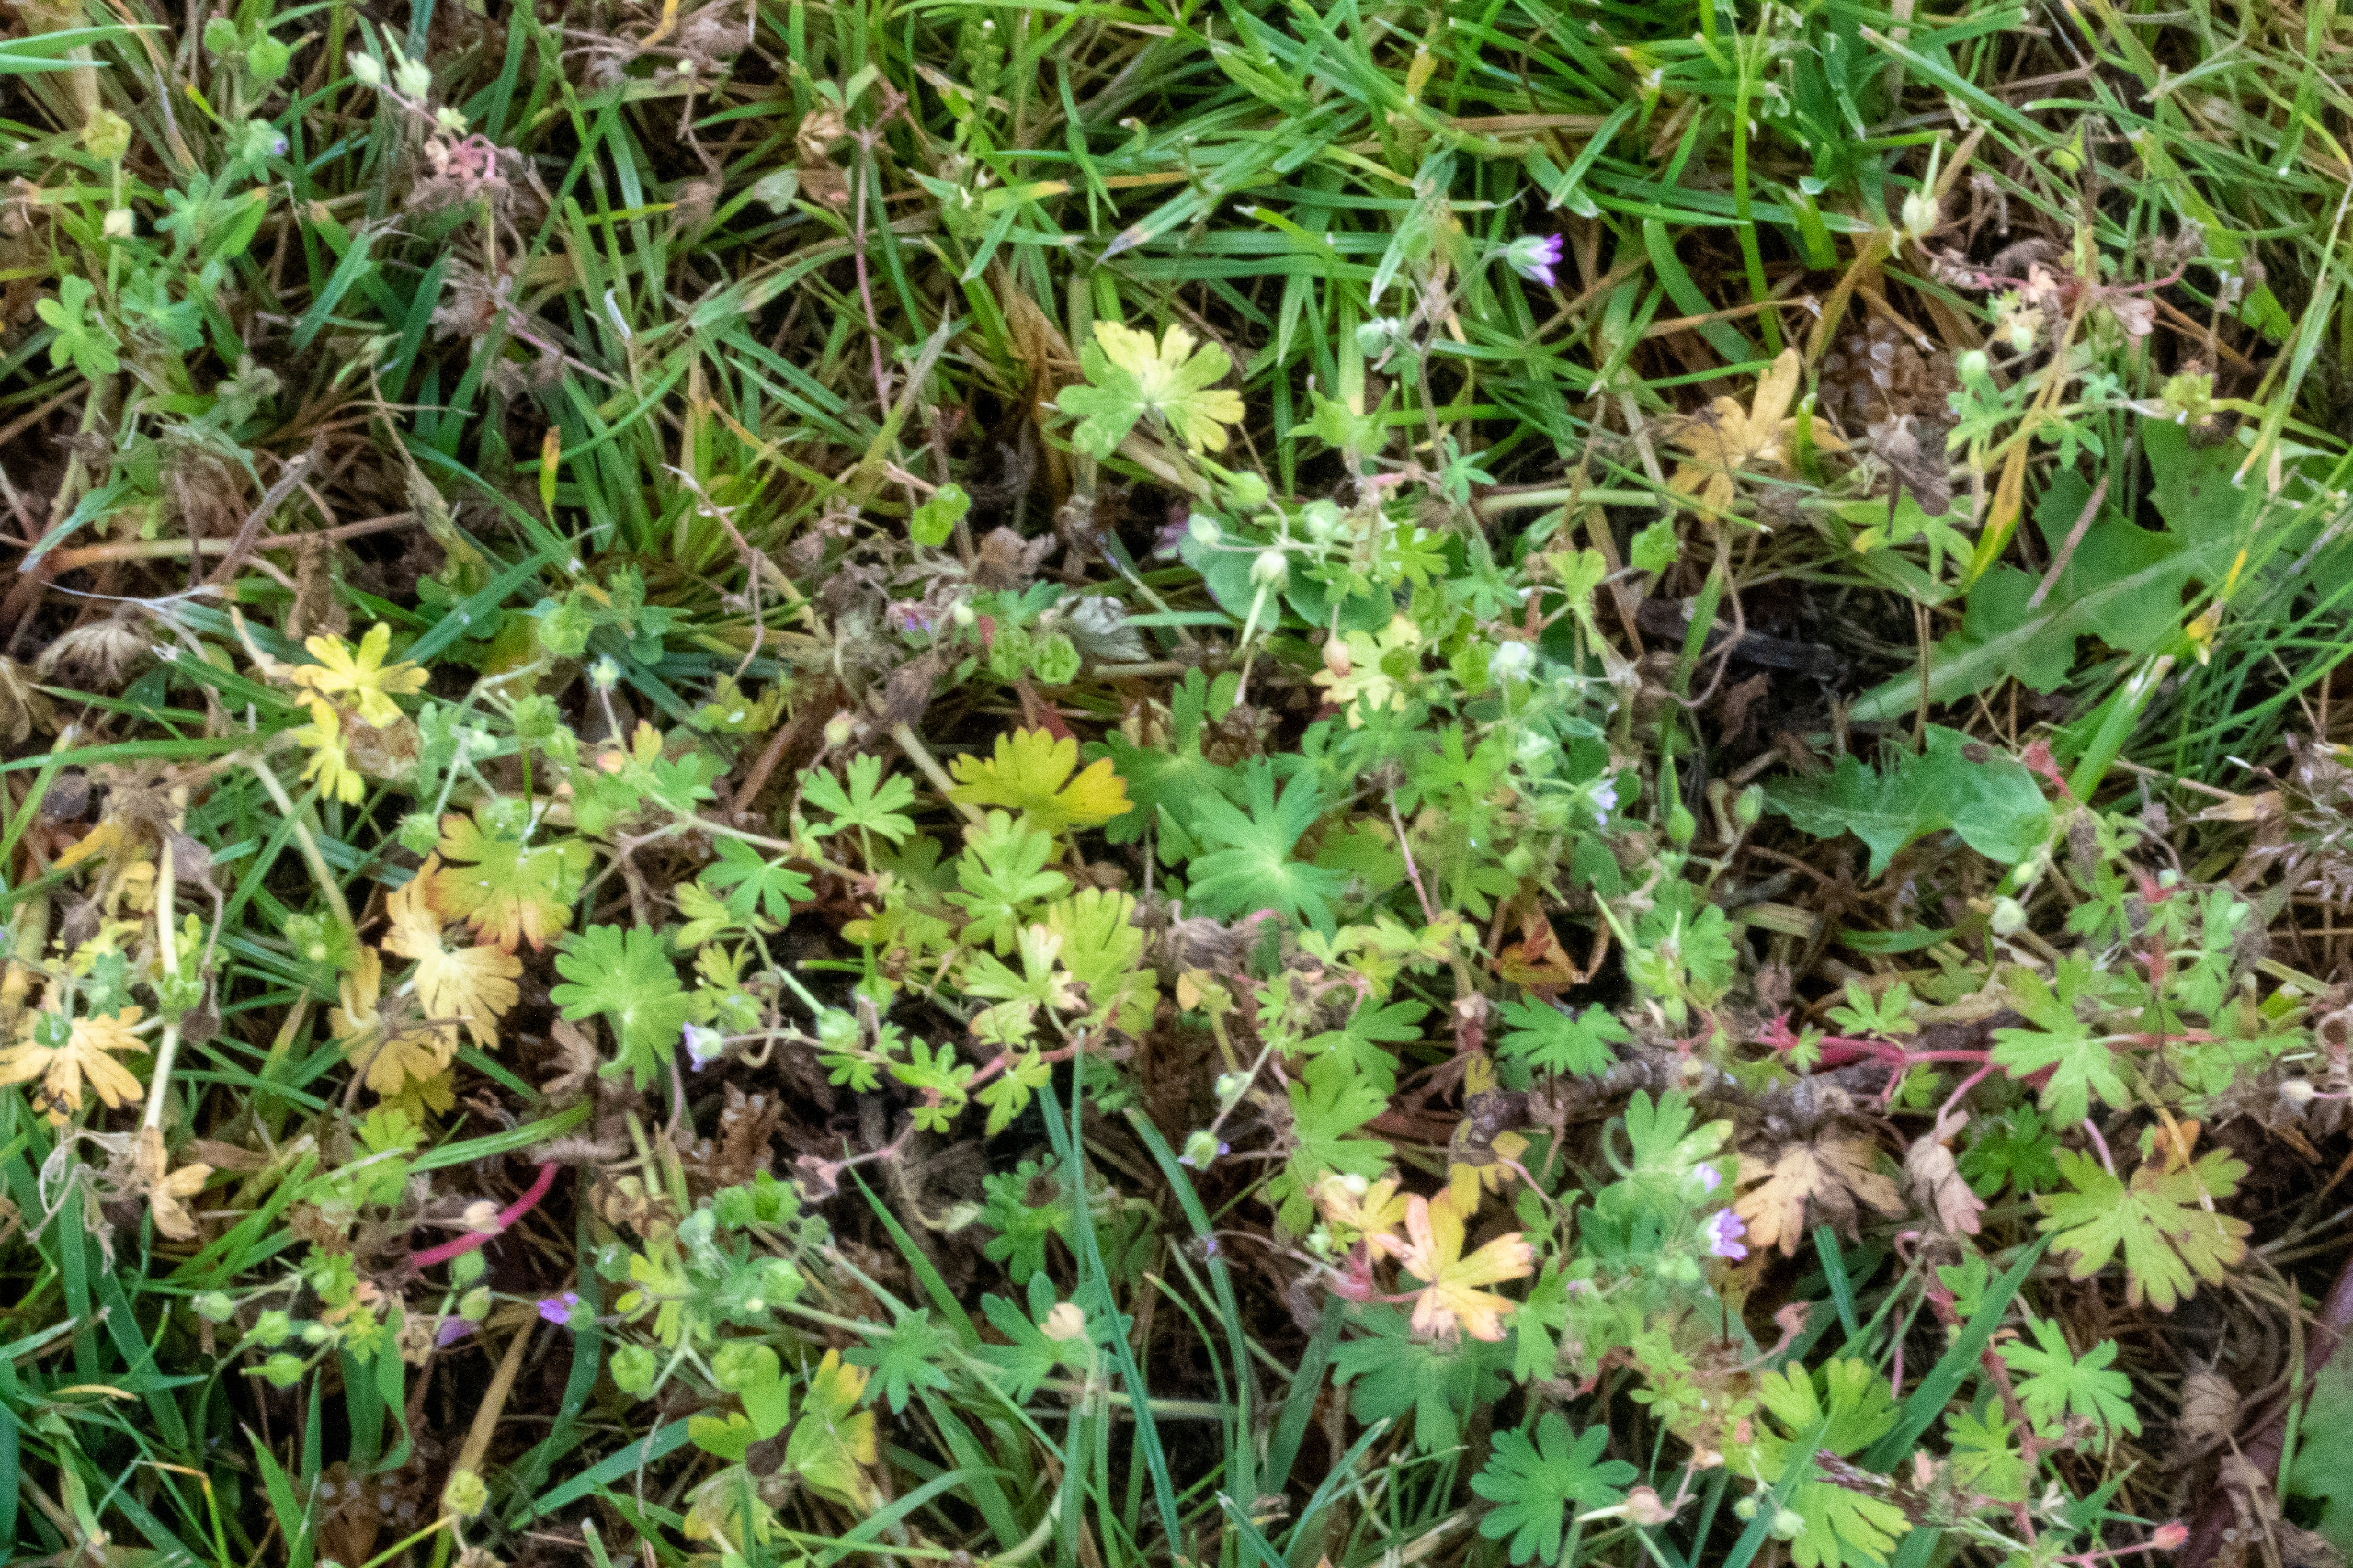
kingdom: Plantae
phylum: Tracheophyta
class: Magnoliopsida
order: Geraniales
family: Geraniaceae
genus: Geranium
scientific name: Geranium pusillum
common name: Liden storkenæb
